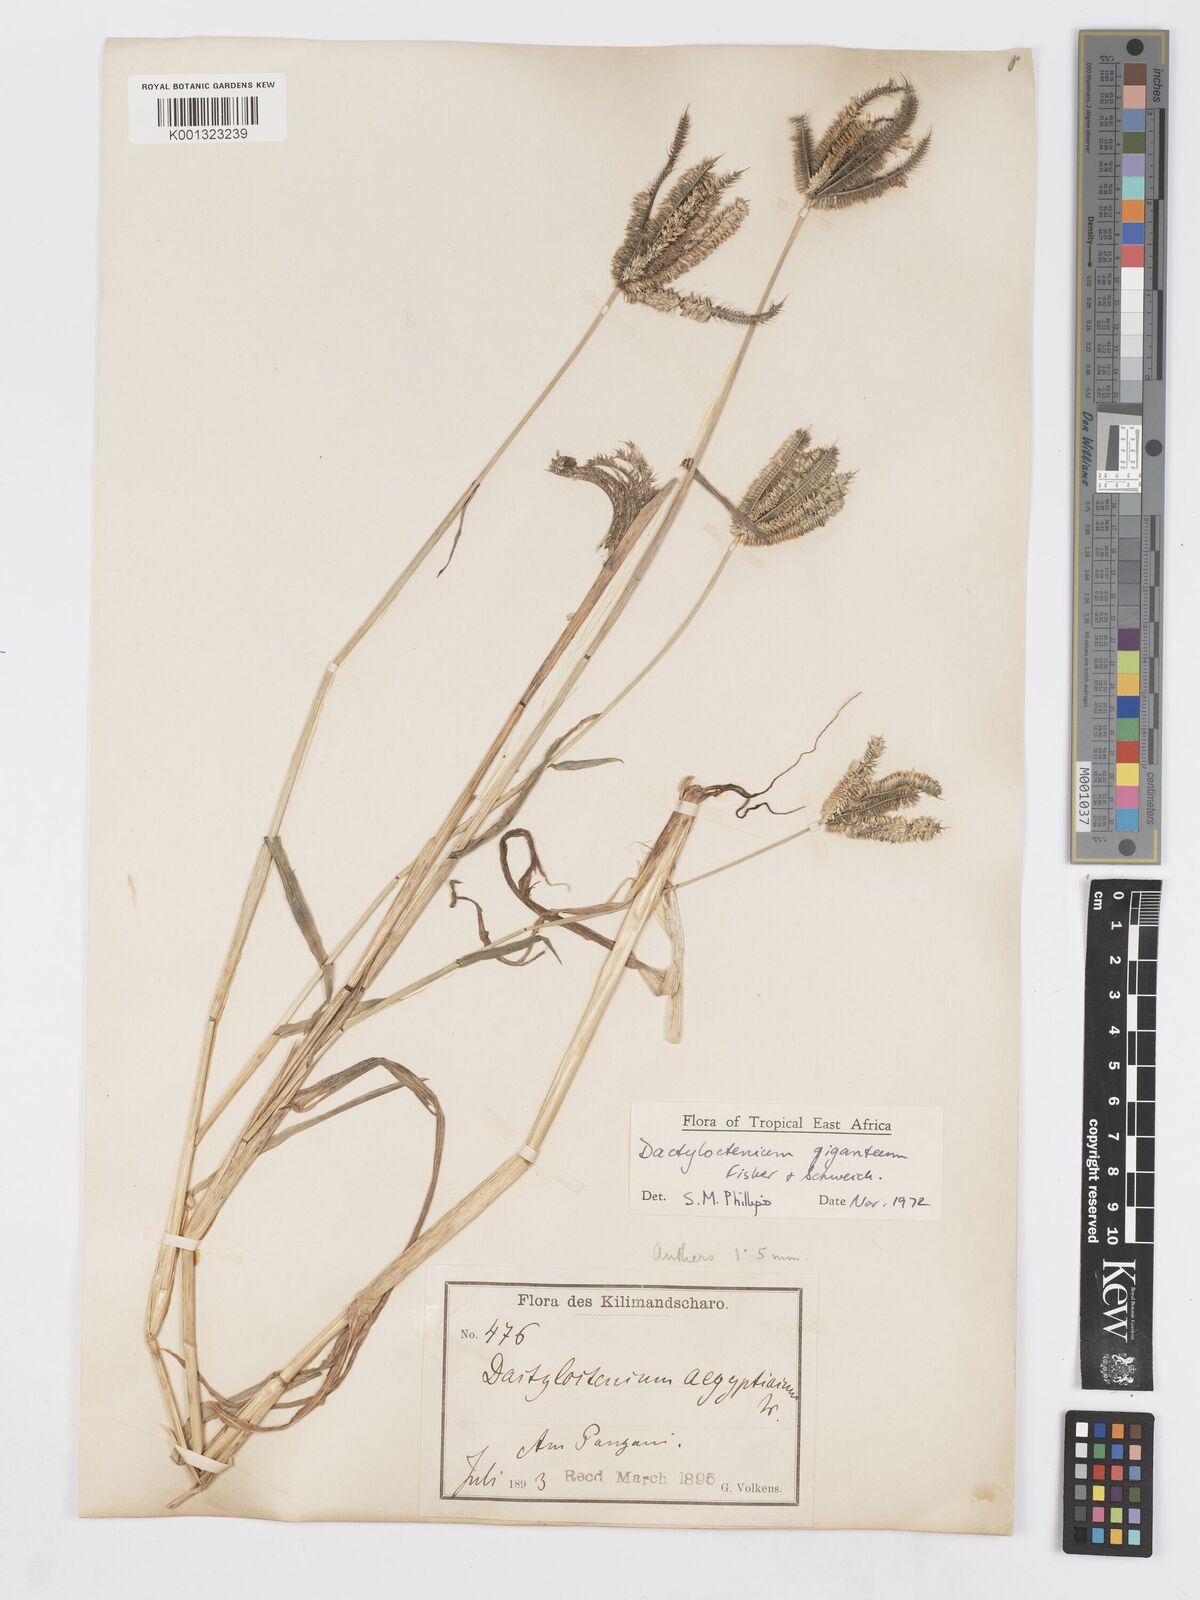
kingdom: Plantae
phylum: Tracheophyta
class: Liliopsida
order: Poales
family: Poaceae
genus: Dactyloctenium
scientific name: Dactyloctenium giganteum
